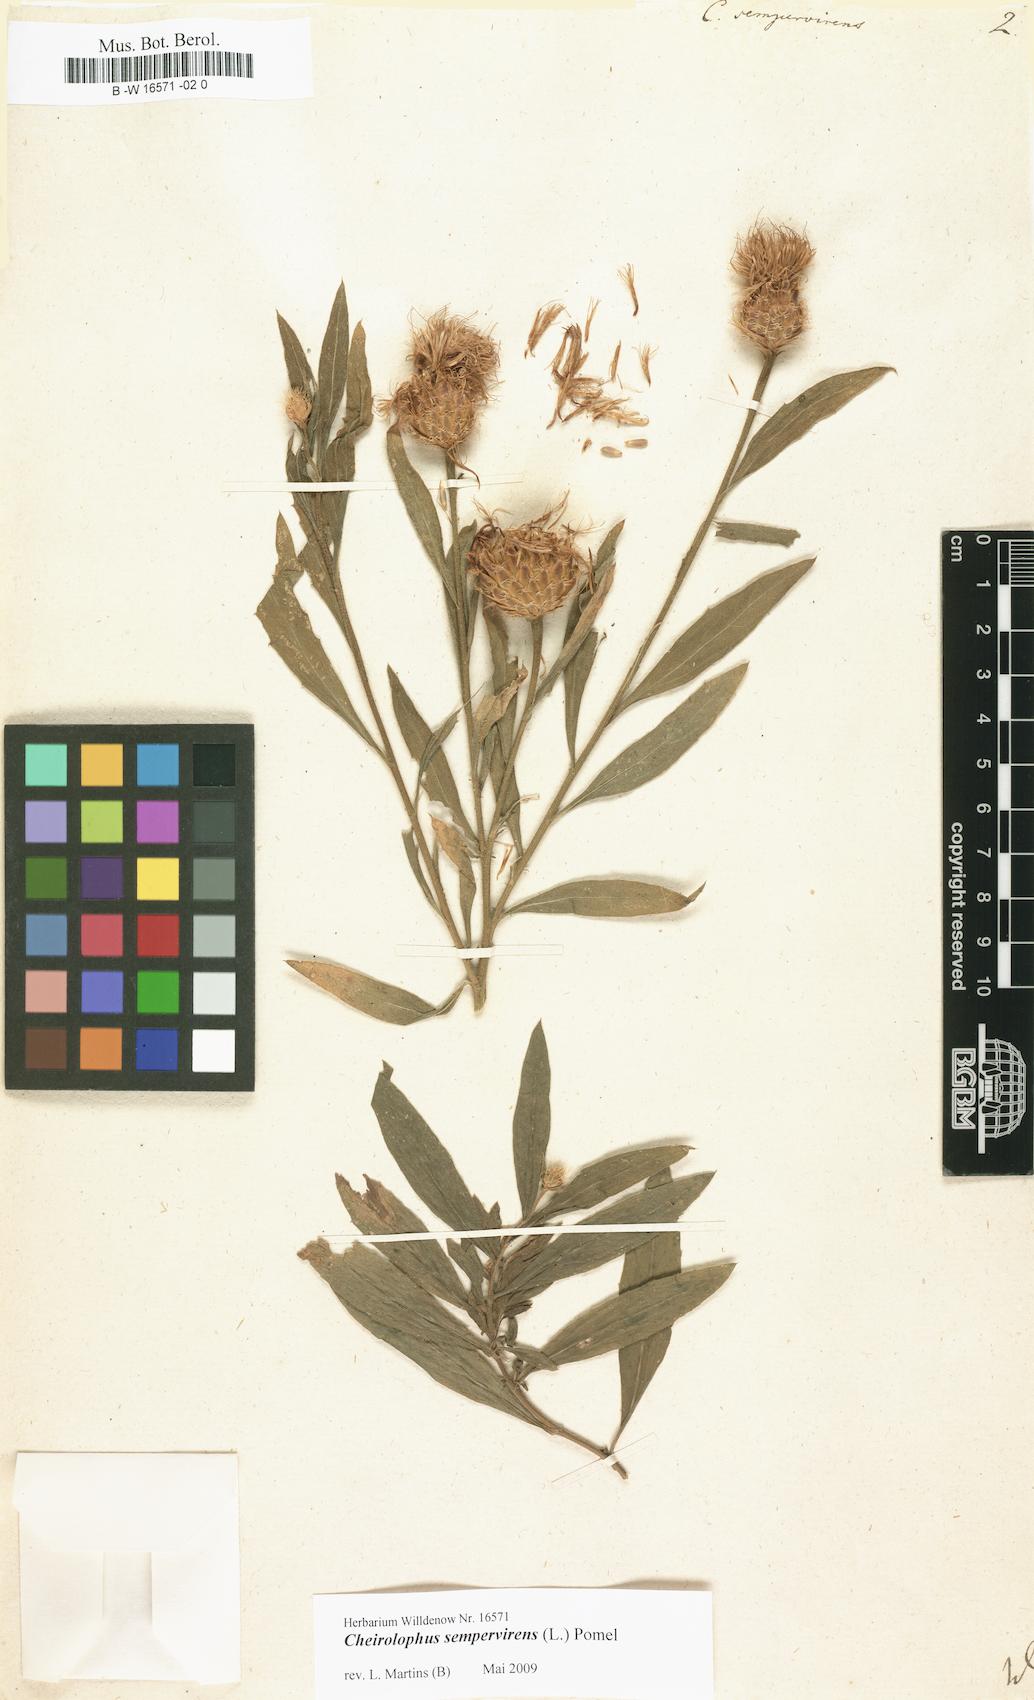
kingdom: Plantae
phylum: Tracheophyta
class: Magnoliopsida
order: Asterales
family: Asteraceae
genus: Cheirolophus
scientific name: Cheirolophus sempervirens
